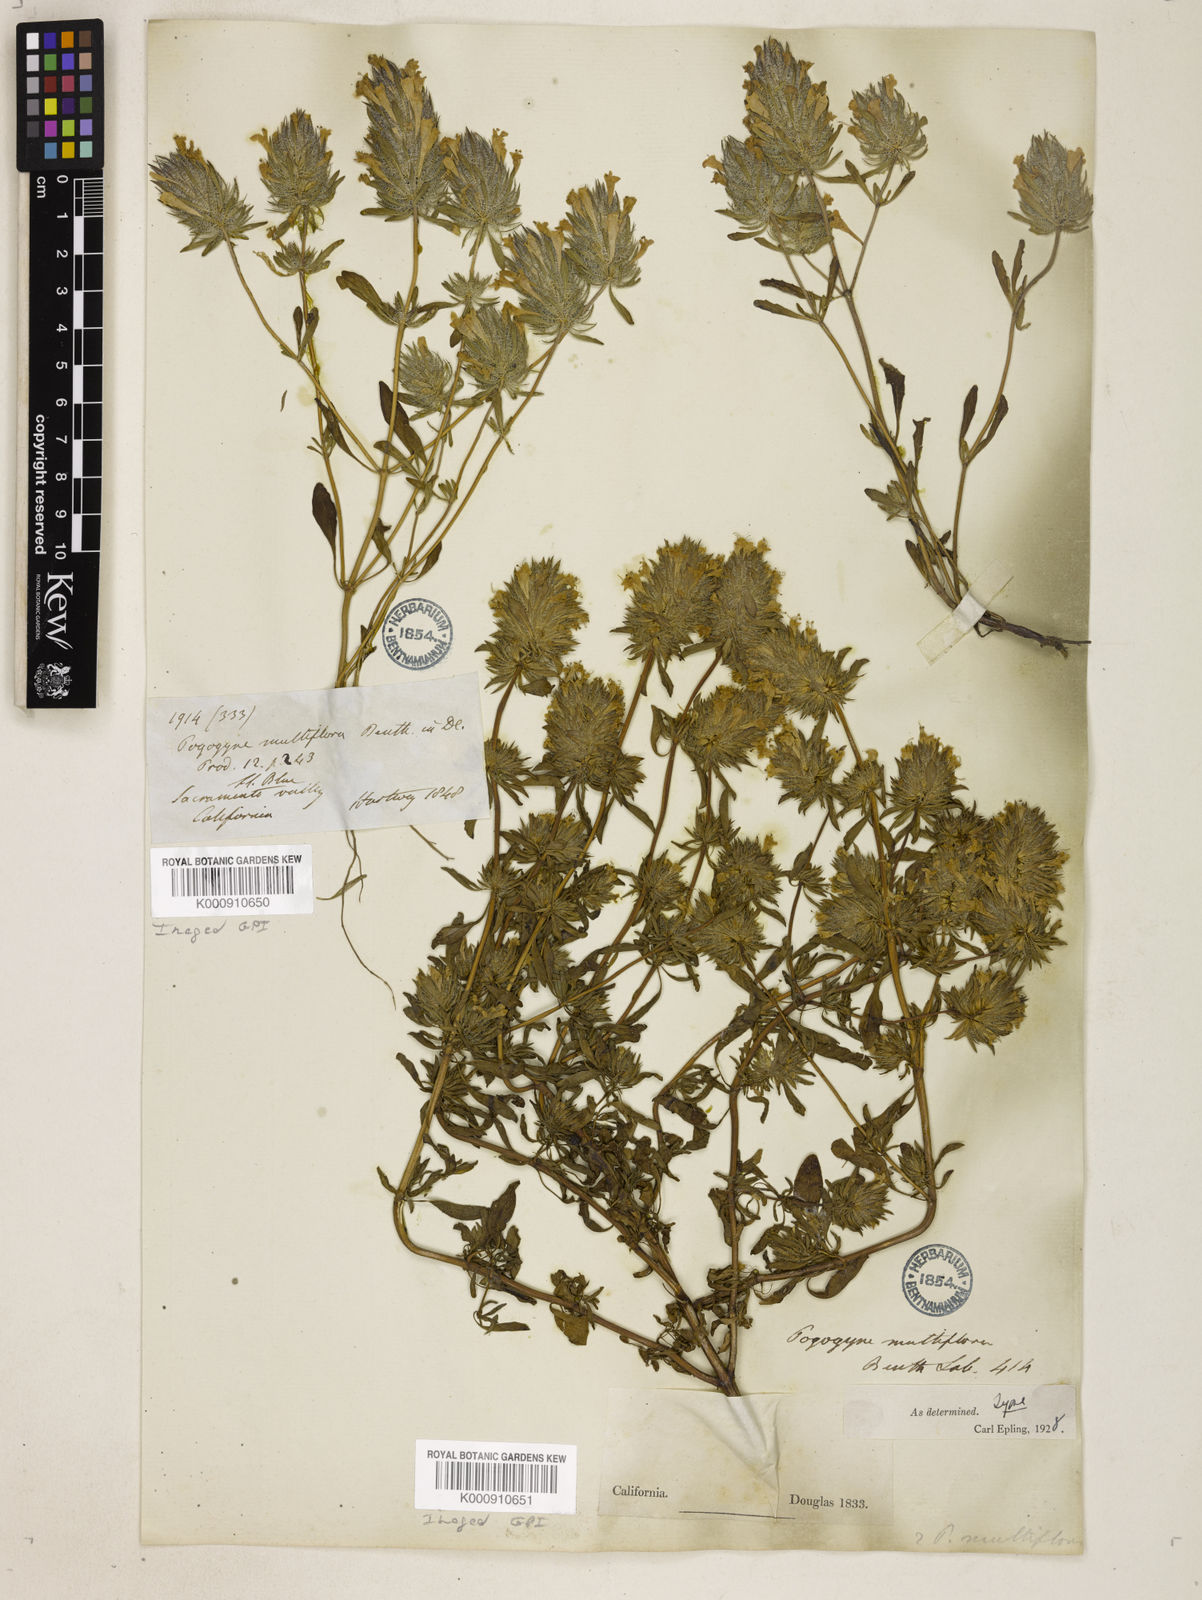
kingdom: Plantae
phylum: Tracheophyta
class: Magnoliopsida
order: Lamiales
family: Lamiaceae
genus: Pogogyne
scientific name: Pogogyne douglasii
